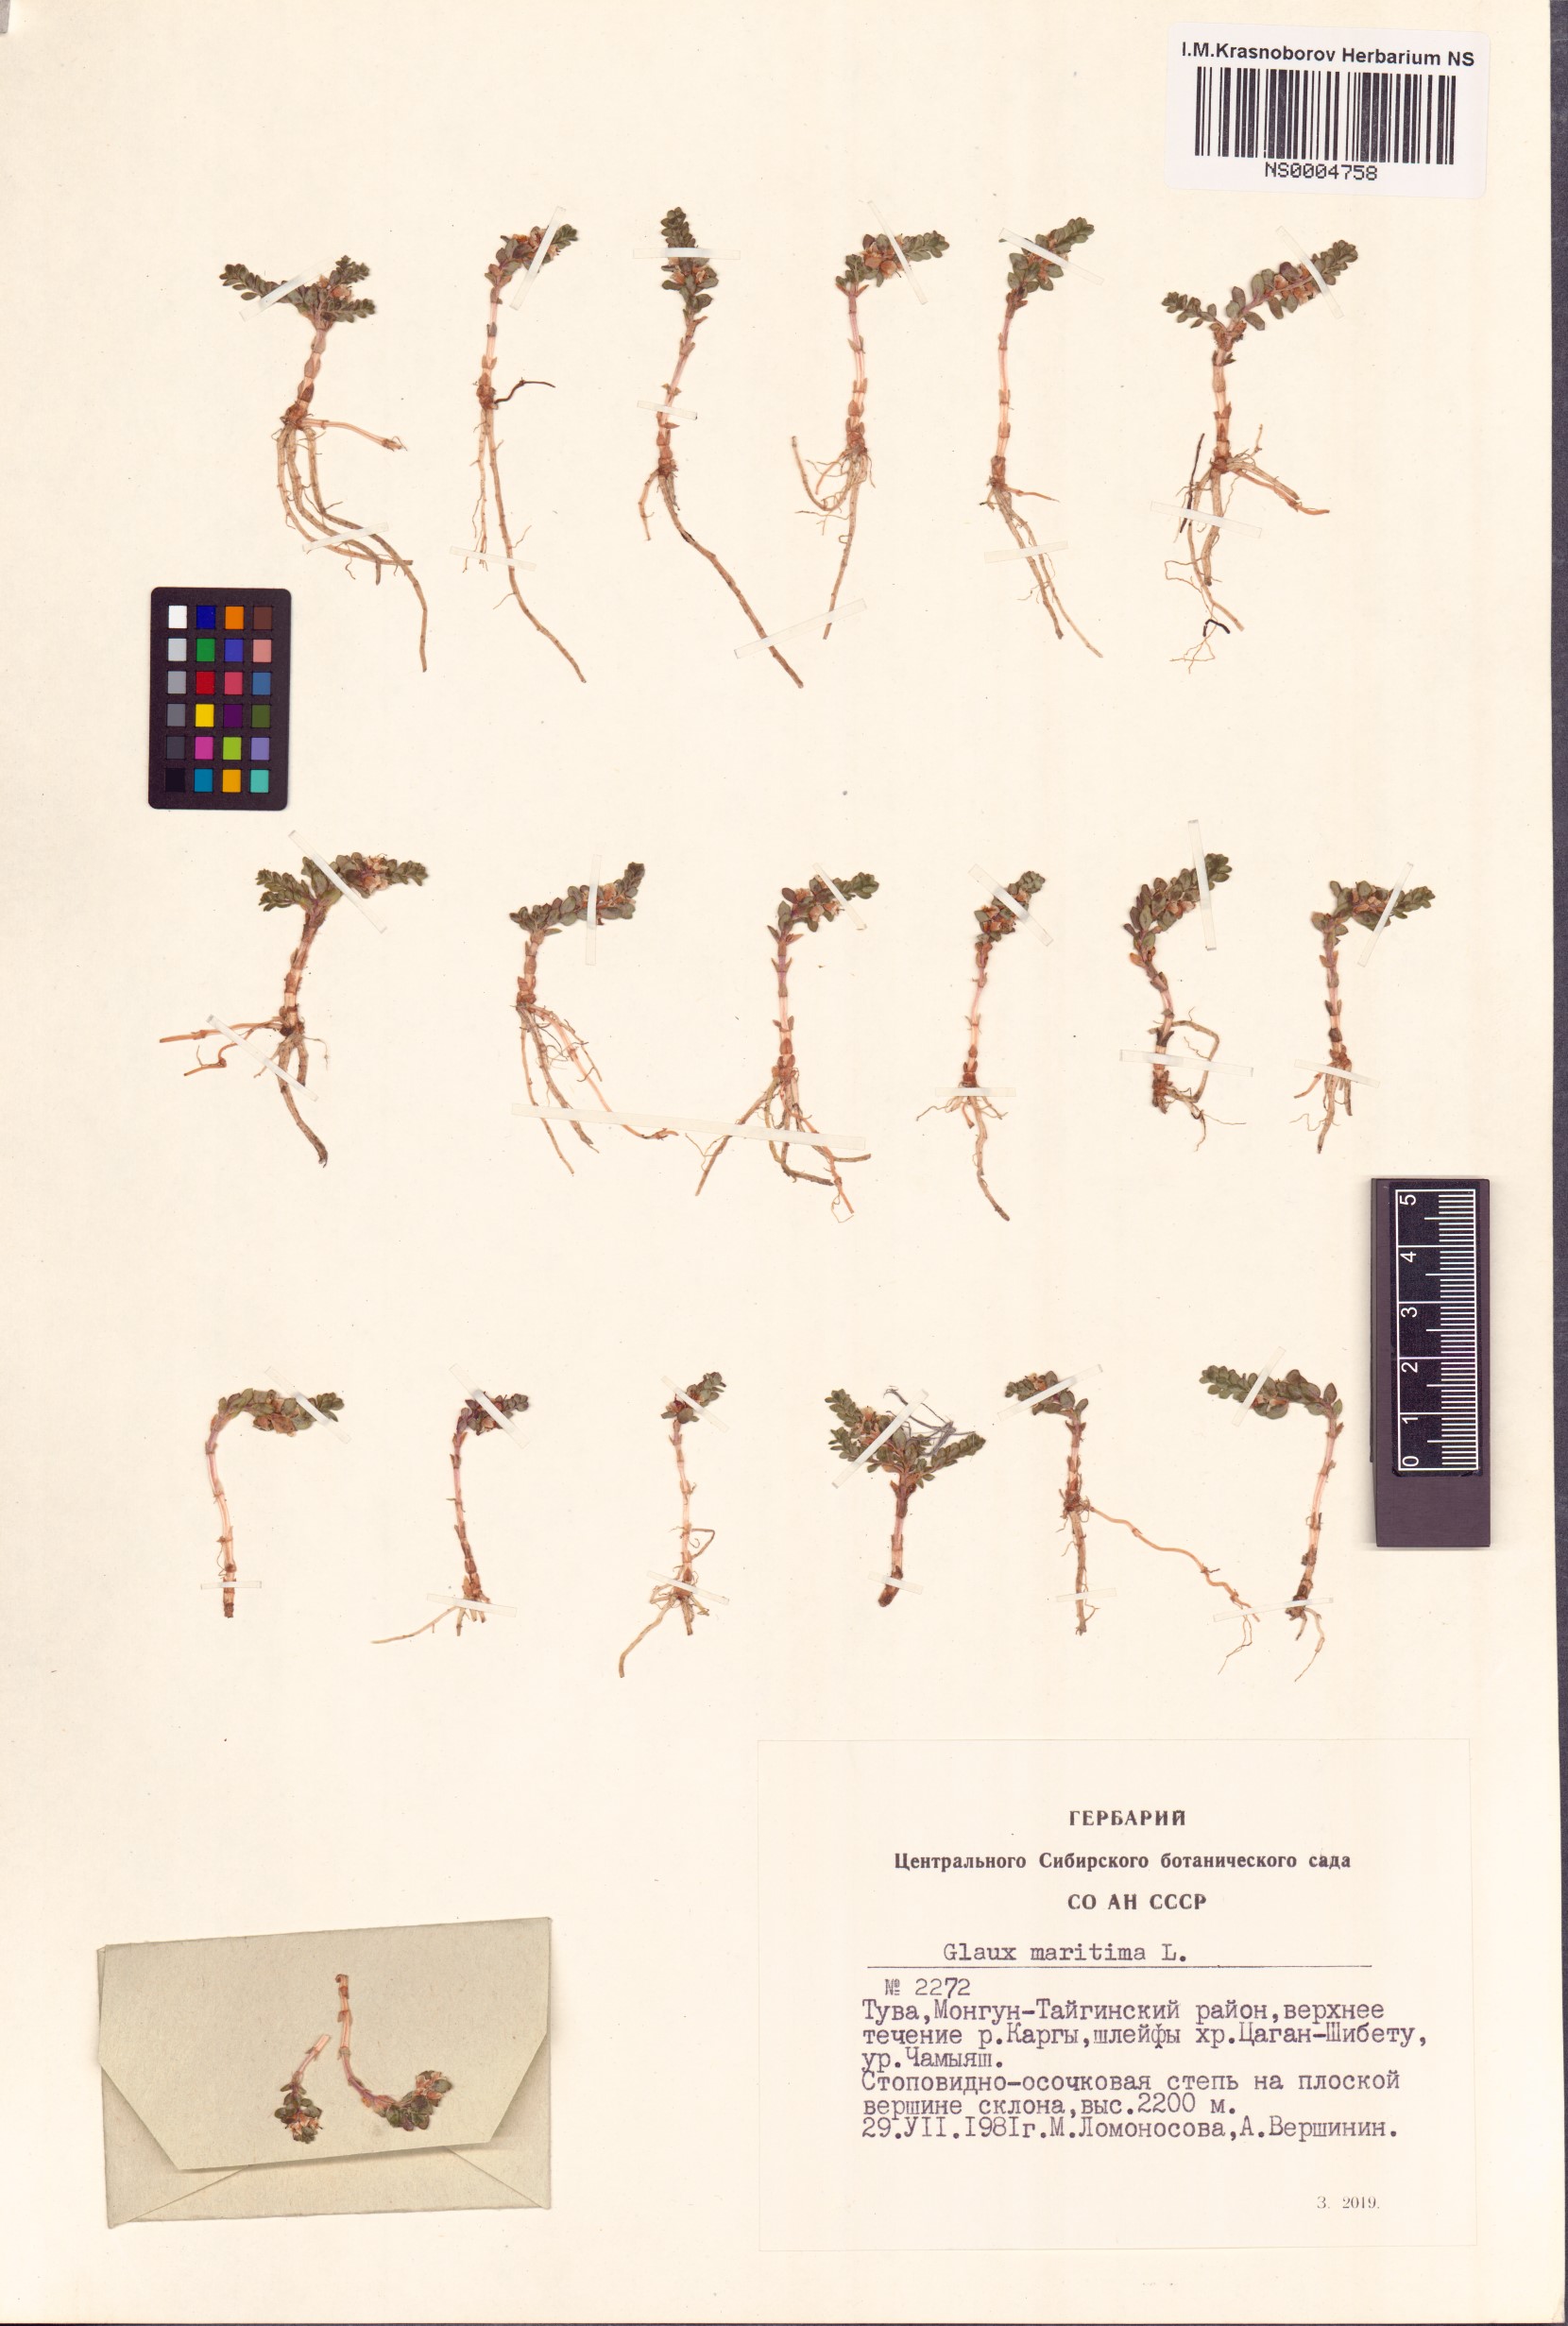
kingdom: Plantae
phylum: Tracheophyta
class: Magnoliopsida
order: Ericales
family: Primulaceae
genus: Lysimachia
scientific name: Lysimachia maritima
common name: Sea milkwort
